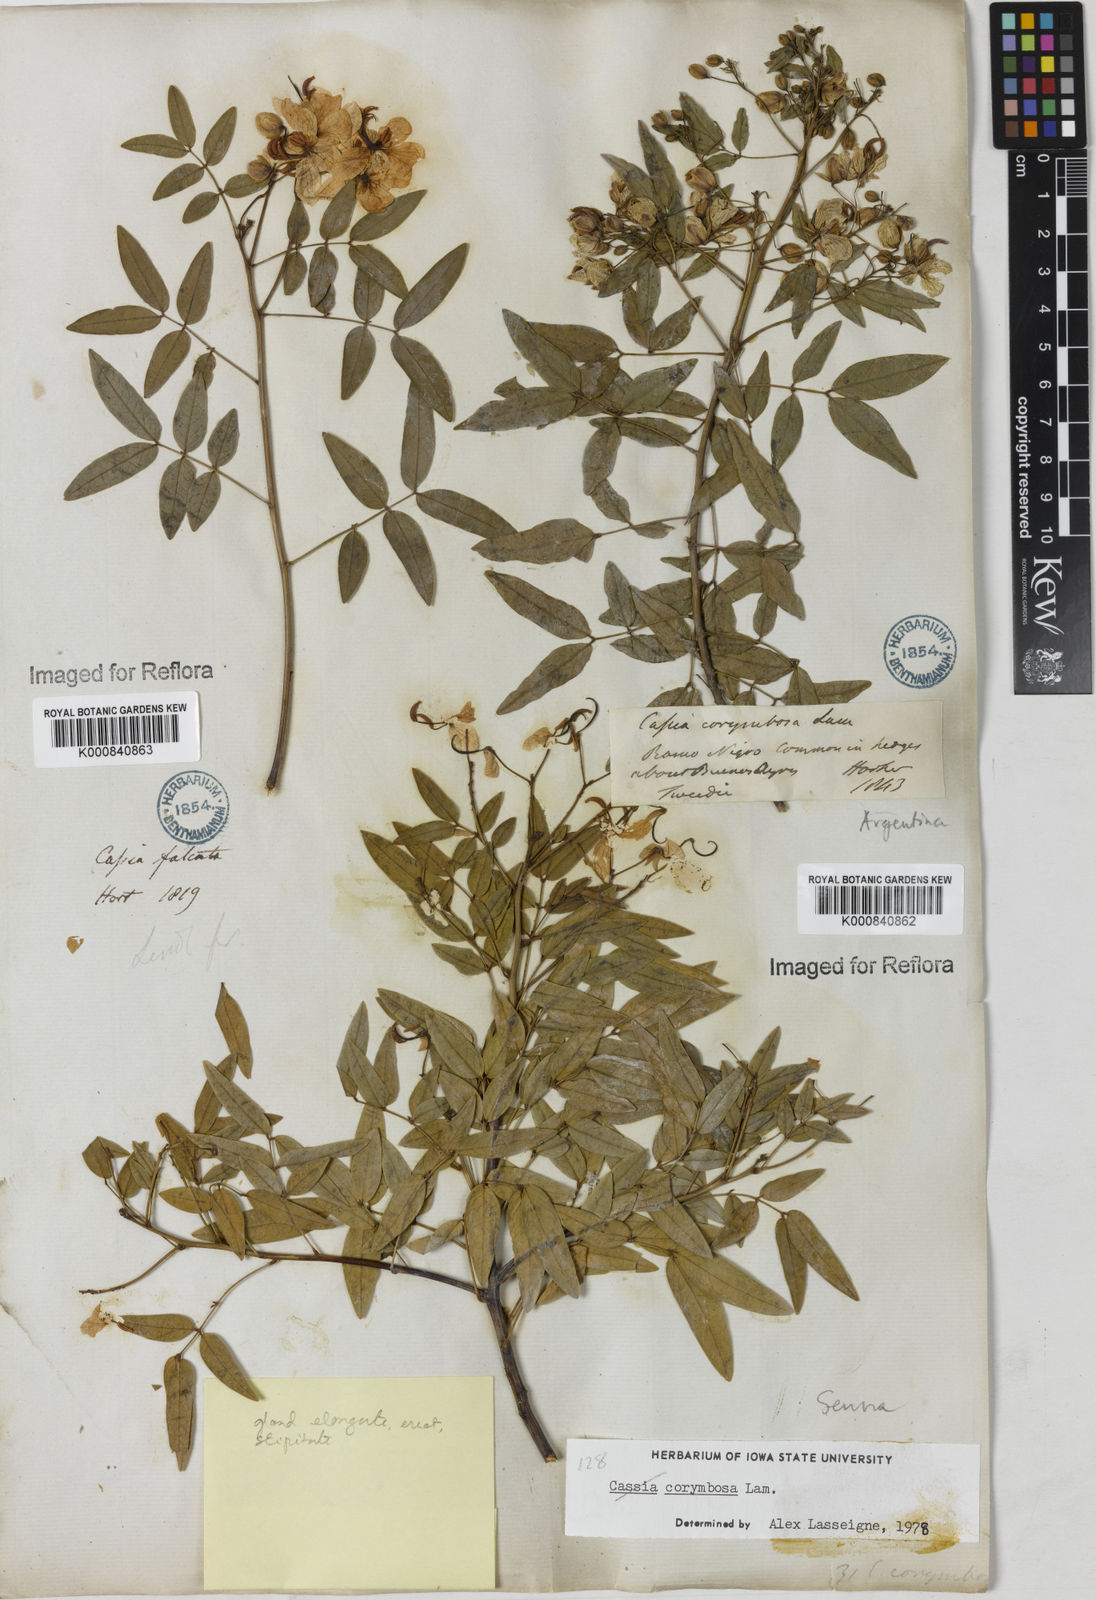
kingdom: Plantae
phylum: Tracheophyta
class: Magnoliopsida
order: Fabales
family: Fabaceae
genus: Senna
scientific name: Senna corymbosa
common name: Argentine senna
